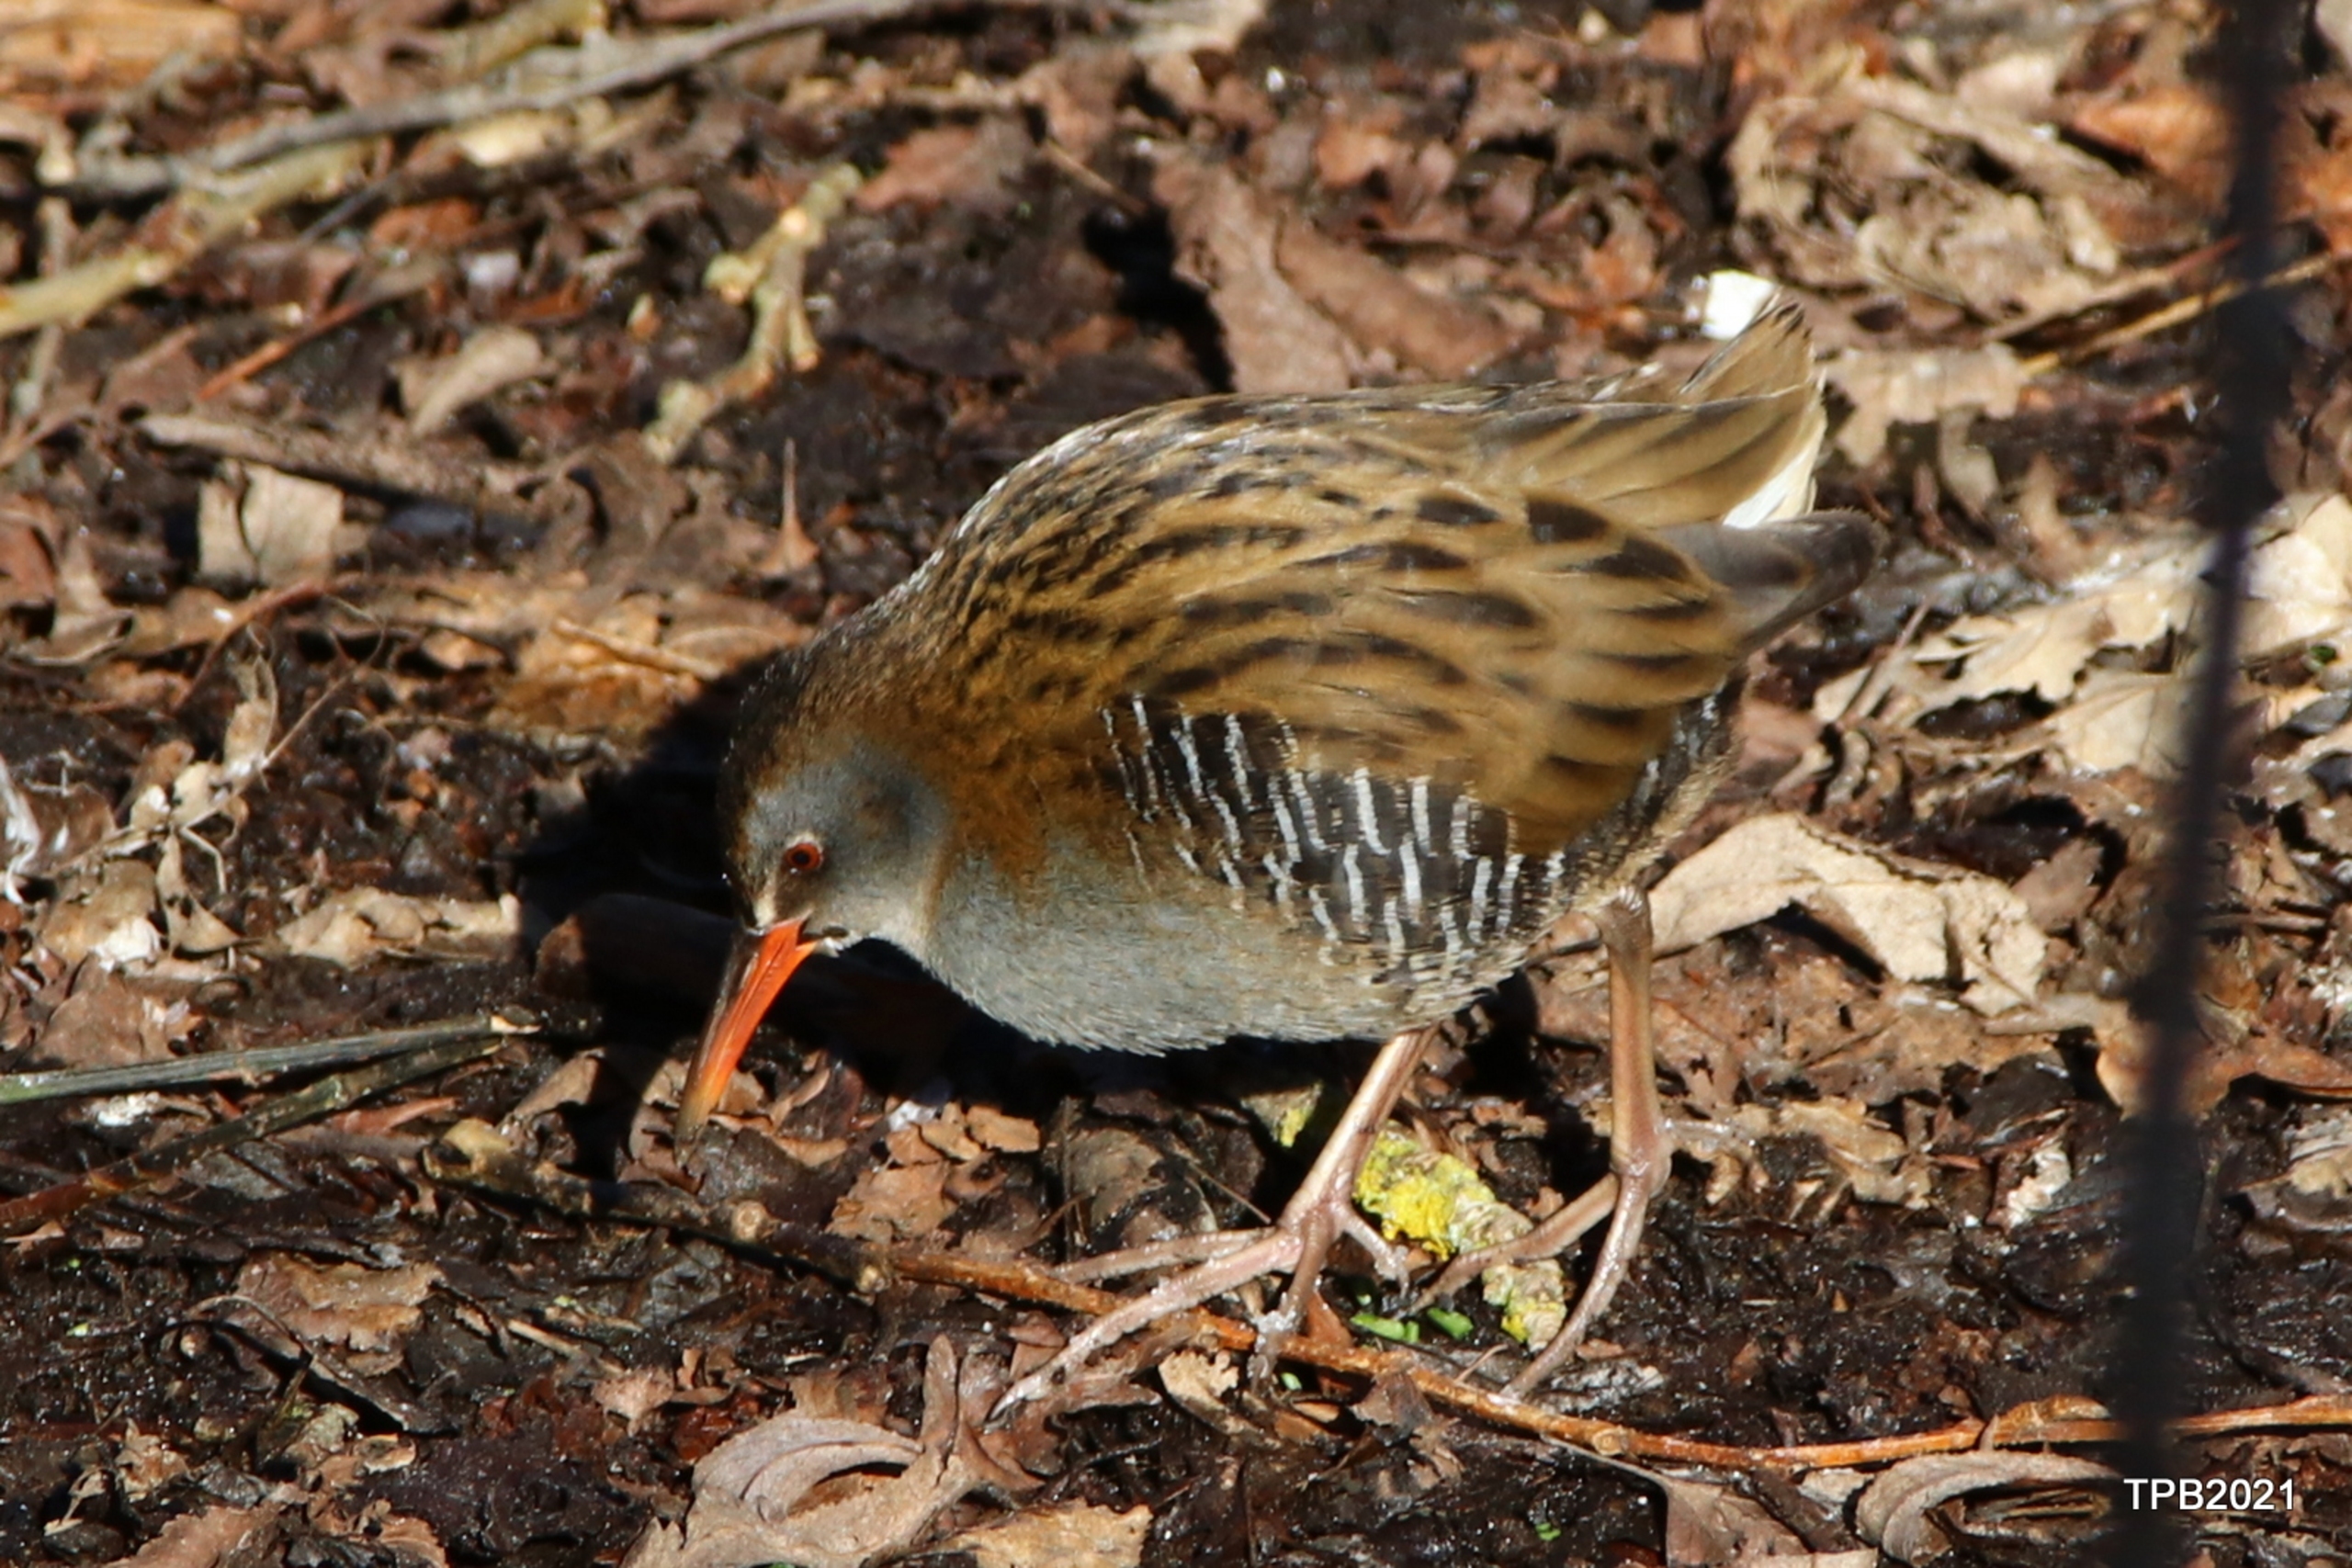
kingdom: Animalia
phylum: Chordata
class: Aves
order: Gruiformes
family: Rallidae
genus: Rallus
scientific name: Rallus aquaticus
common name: Vandrikse
